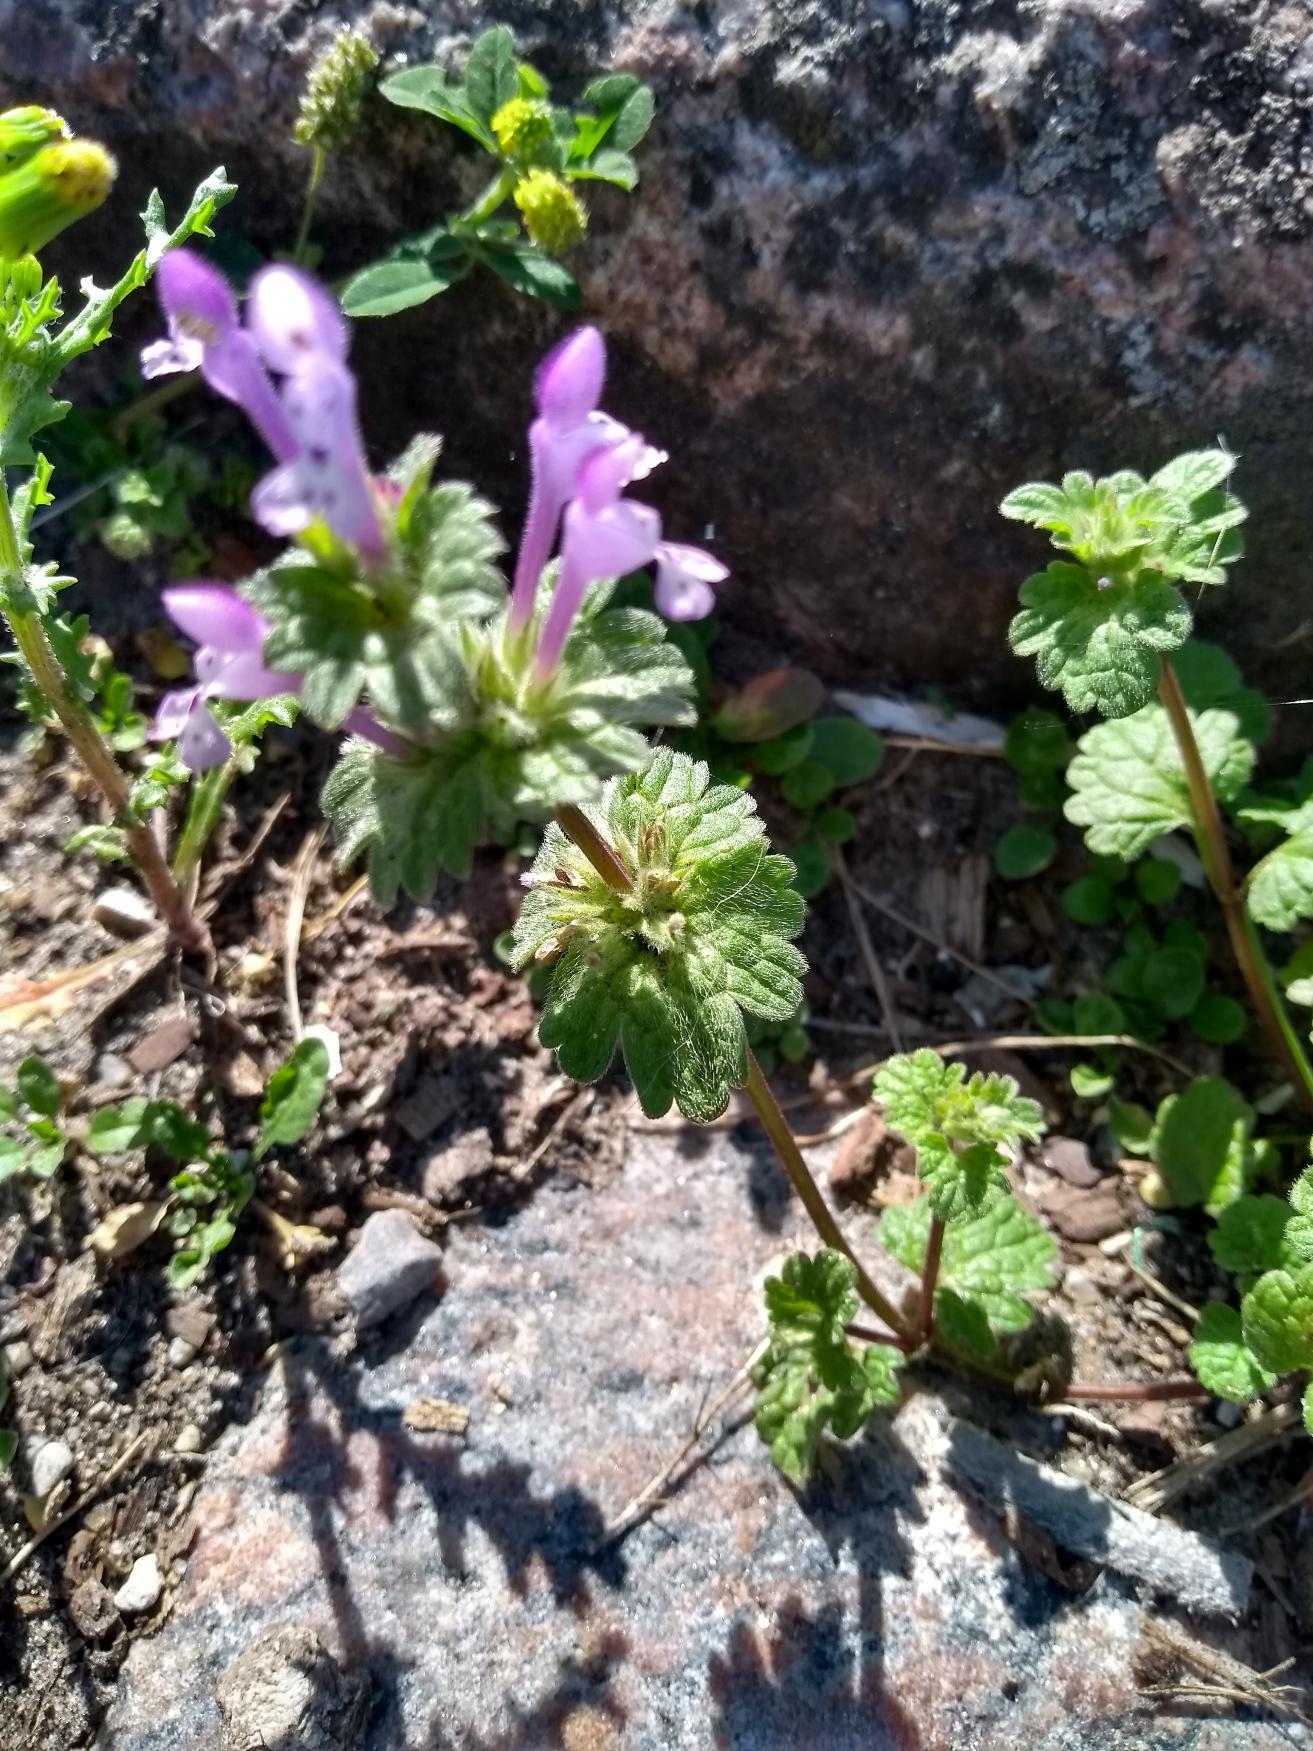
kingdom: Plantae
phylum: Tracheophyta
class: Magnoliopsida
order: Lamiales
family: Lamiaceae
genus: Lamium
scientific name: Lamium amplexicaule
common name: Liden tvetand
